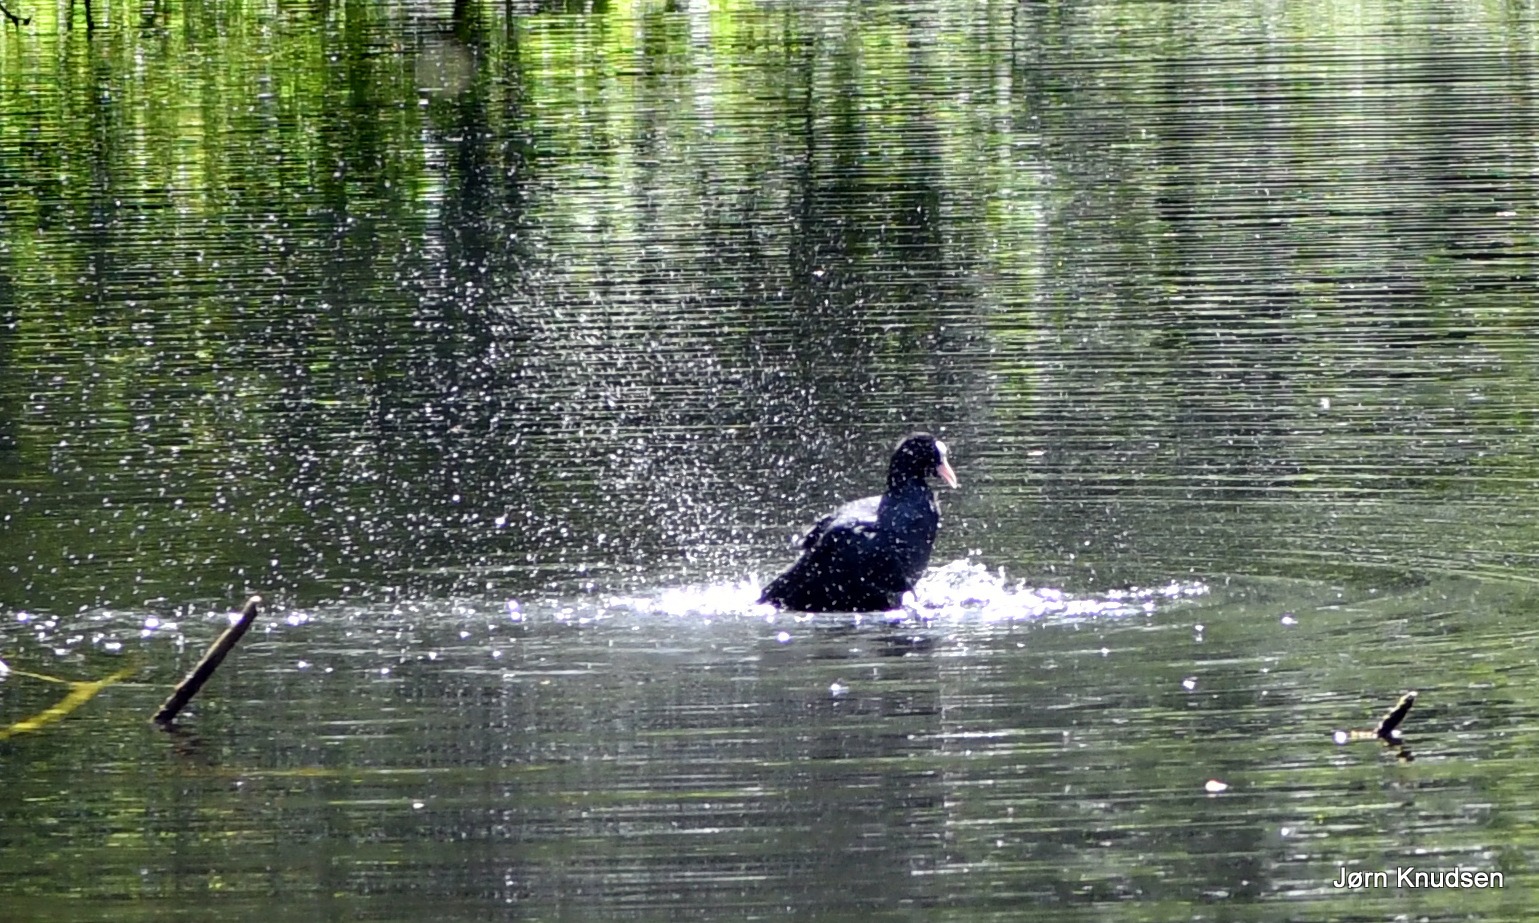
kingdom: Animalia
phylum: Chordata
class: Aves
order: Gruiformes
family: Rallidae
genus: Fulica
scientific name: Fulica atra
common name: Blishøne
